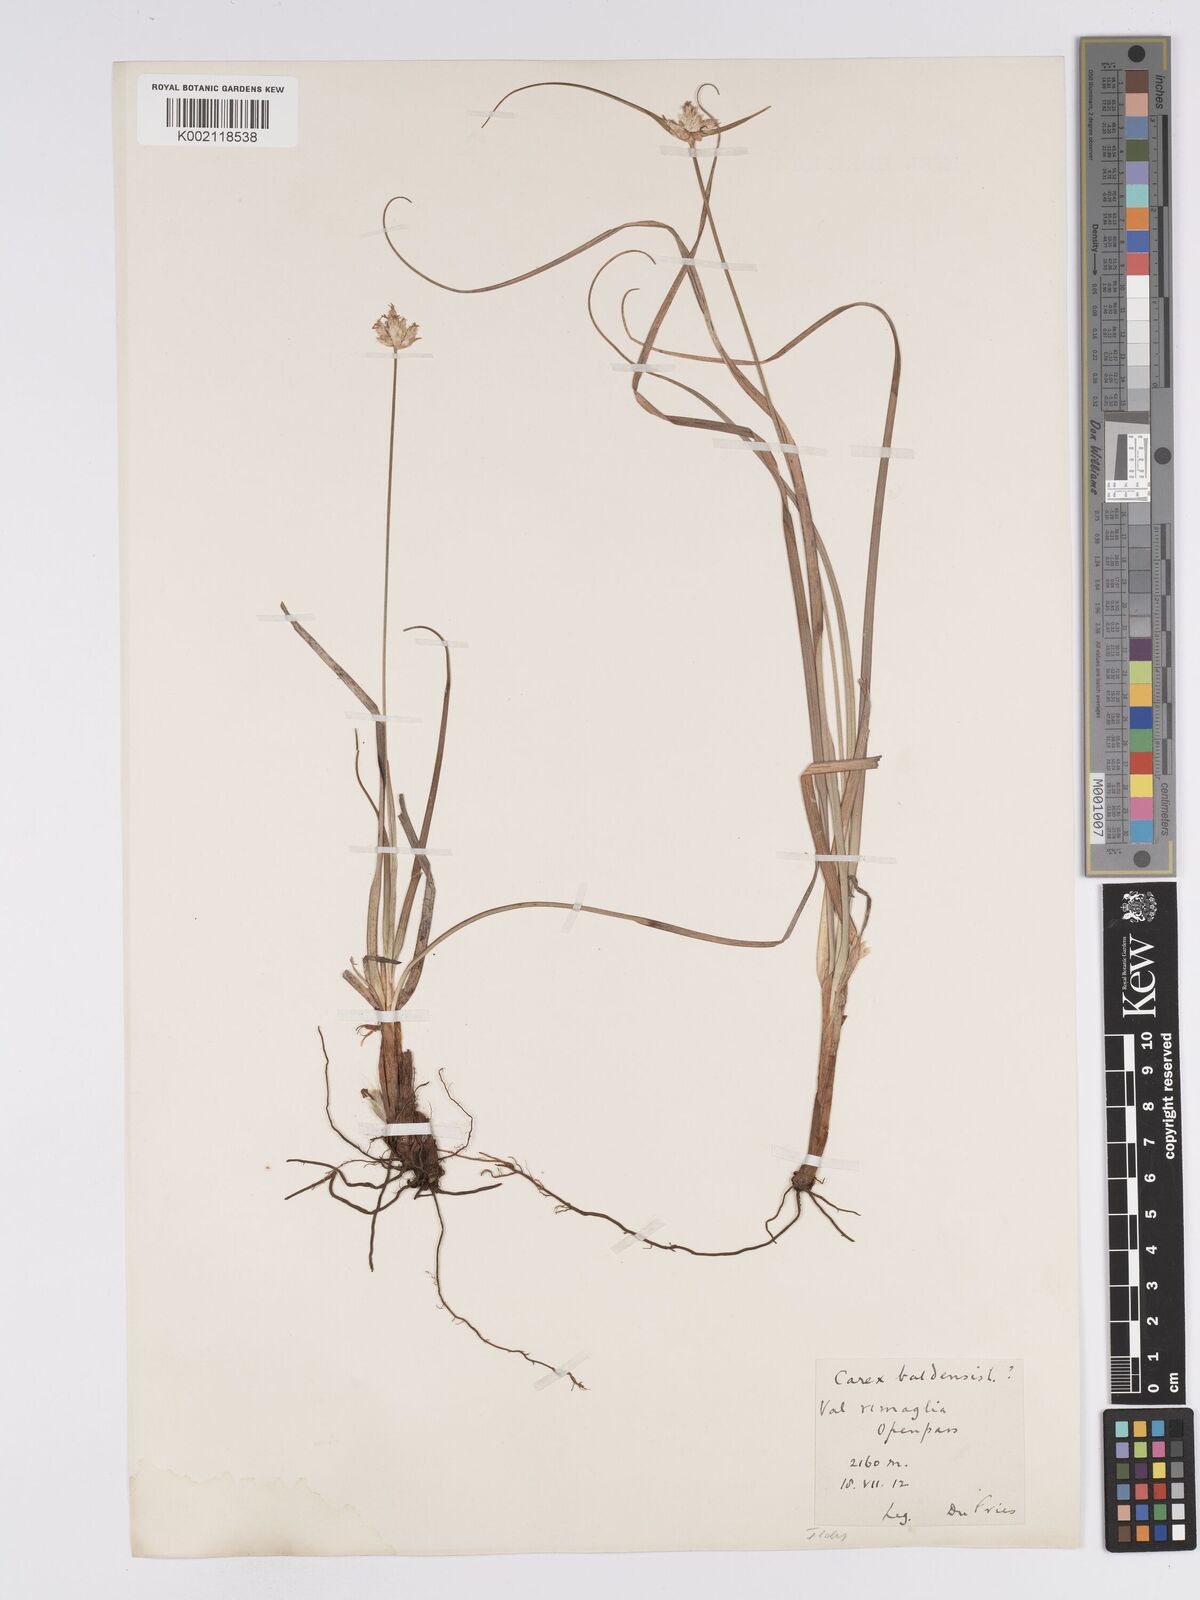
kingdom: Plantae
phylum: Tracheophyta
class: Liliopsida
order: Poales
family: Cyperaceae
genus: Carex
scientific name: Carex baldensis
